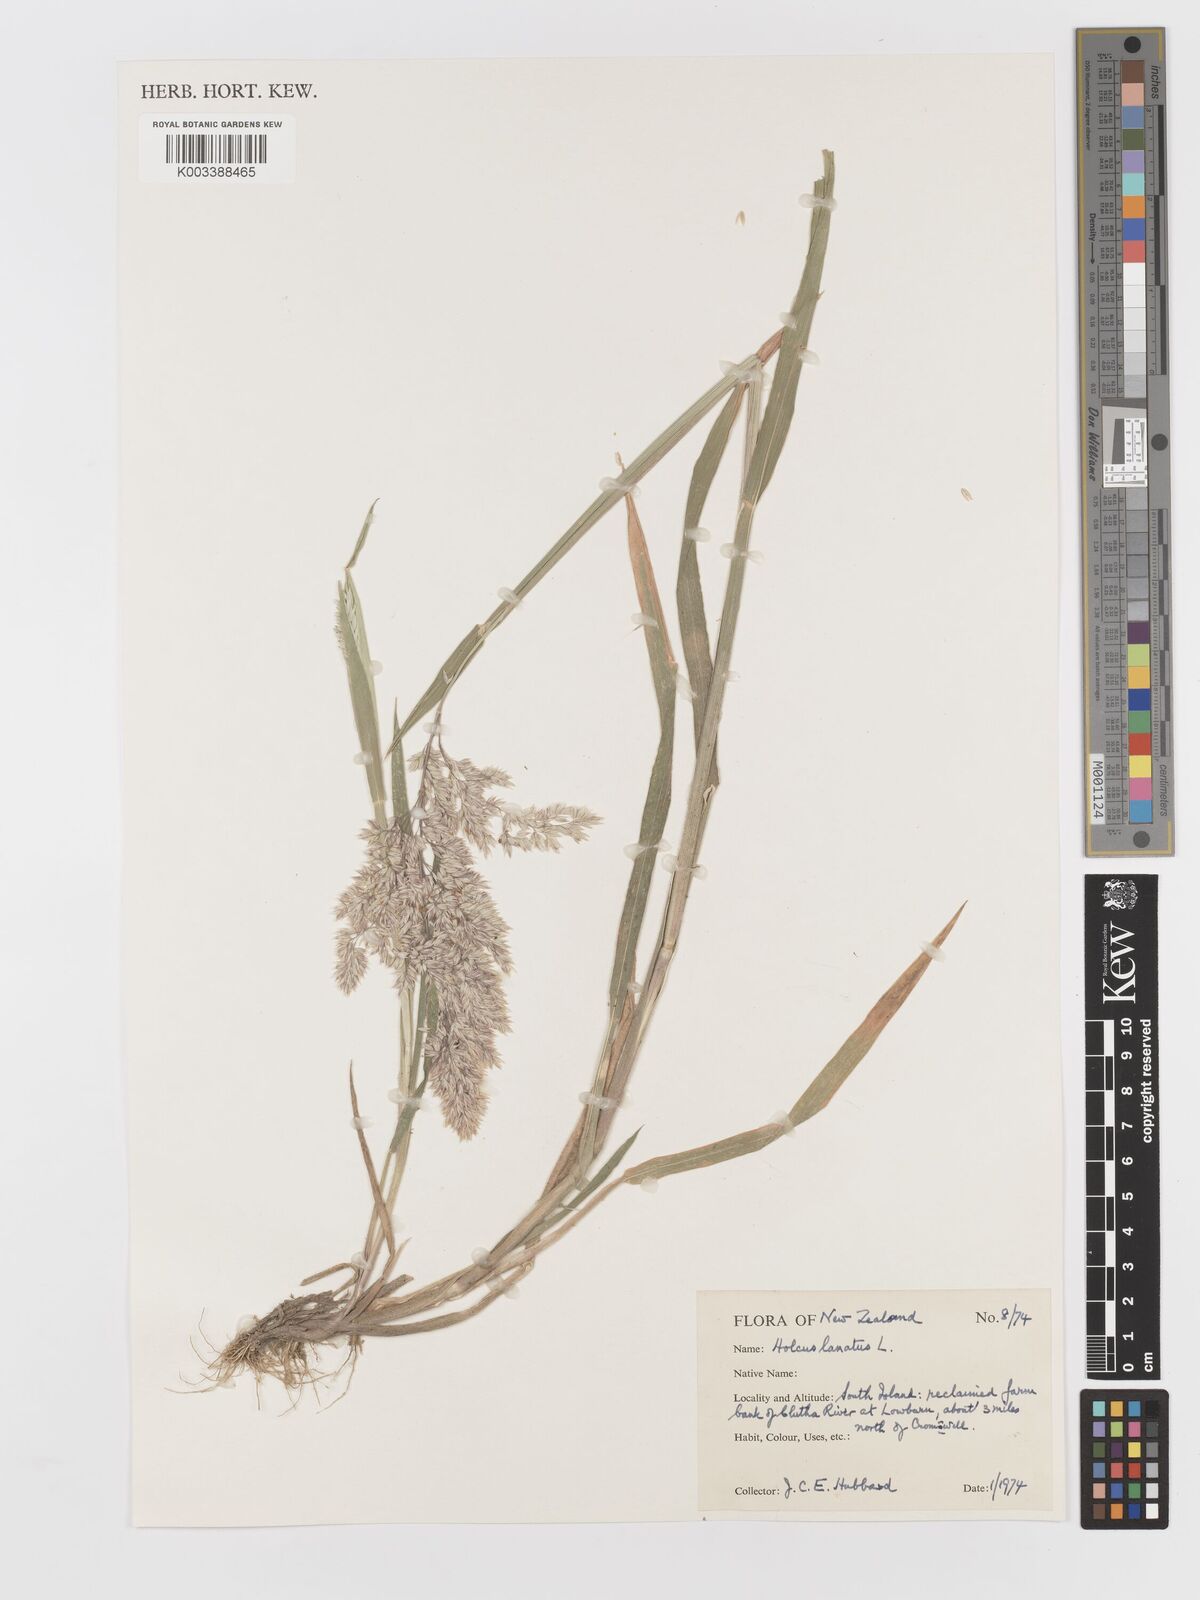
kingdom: Plantae
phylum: Tracheophyta
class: Liliopsida
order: Poales
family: Poaceae
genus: Holcus
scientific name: Holcus lanatus
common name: Yorkshire-fog
